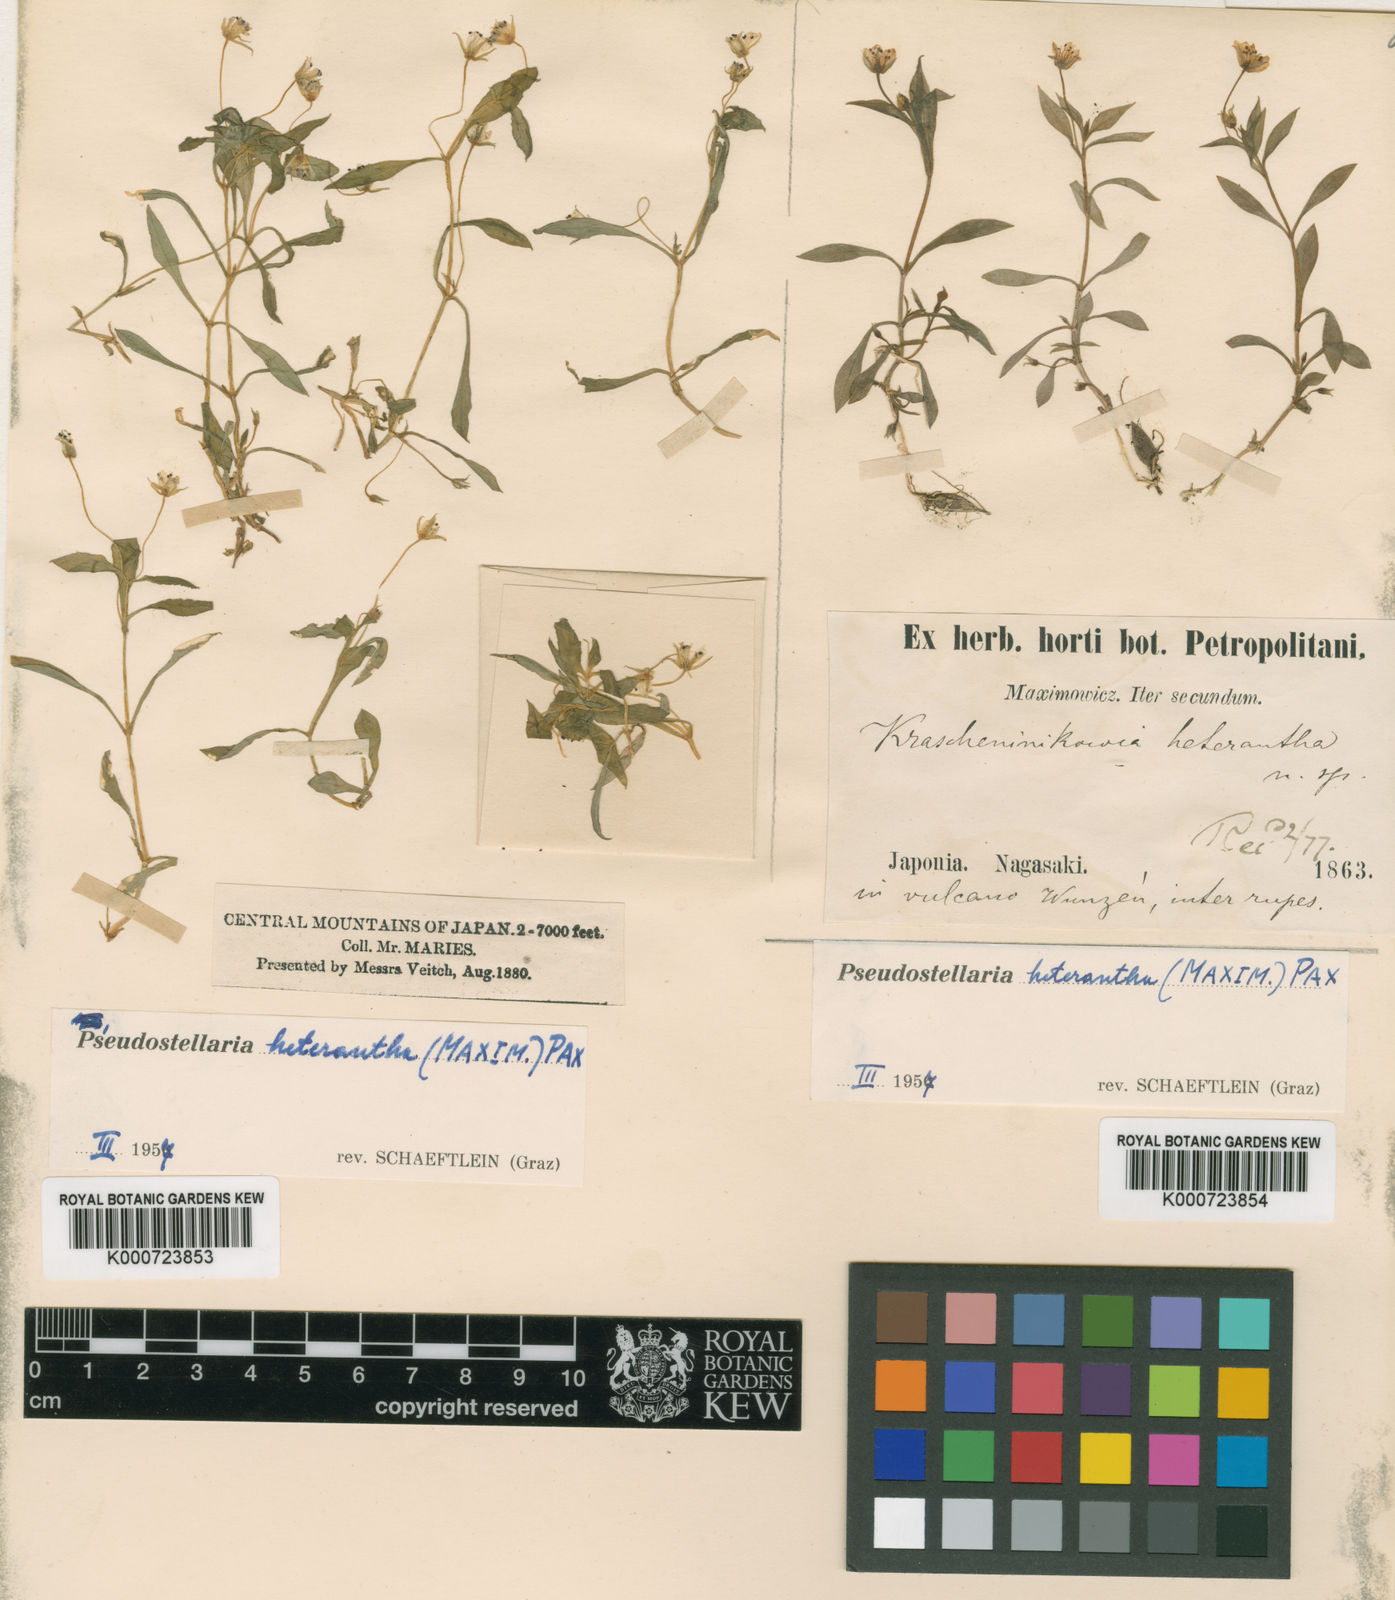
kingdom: Plantae
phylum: Tracheophyta
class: Magnoliopsida
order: Caryophyllales
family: Caryophyllaceae
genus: Pseudostellaria
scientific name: Pseudostellaria heterantha
